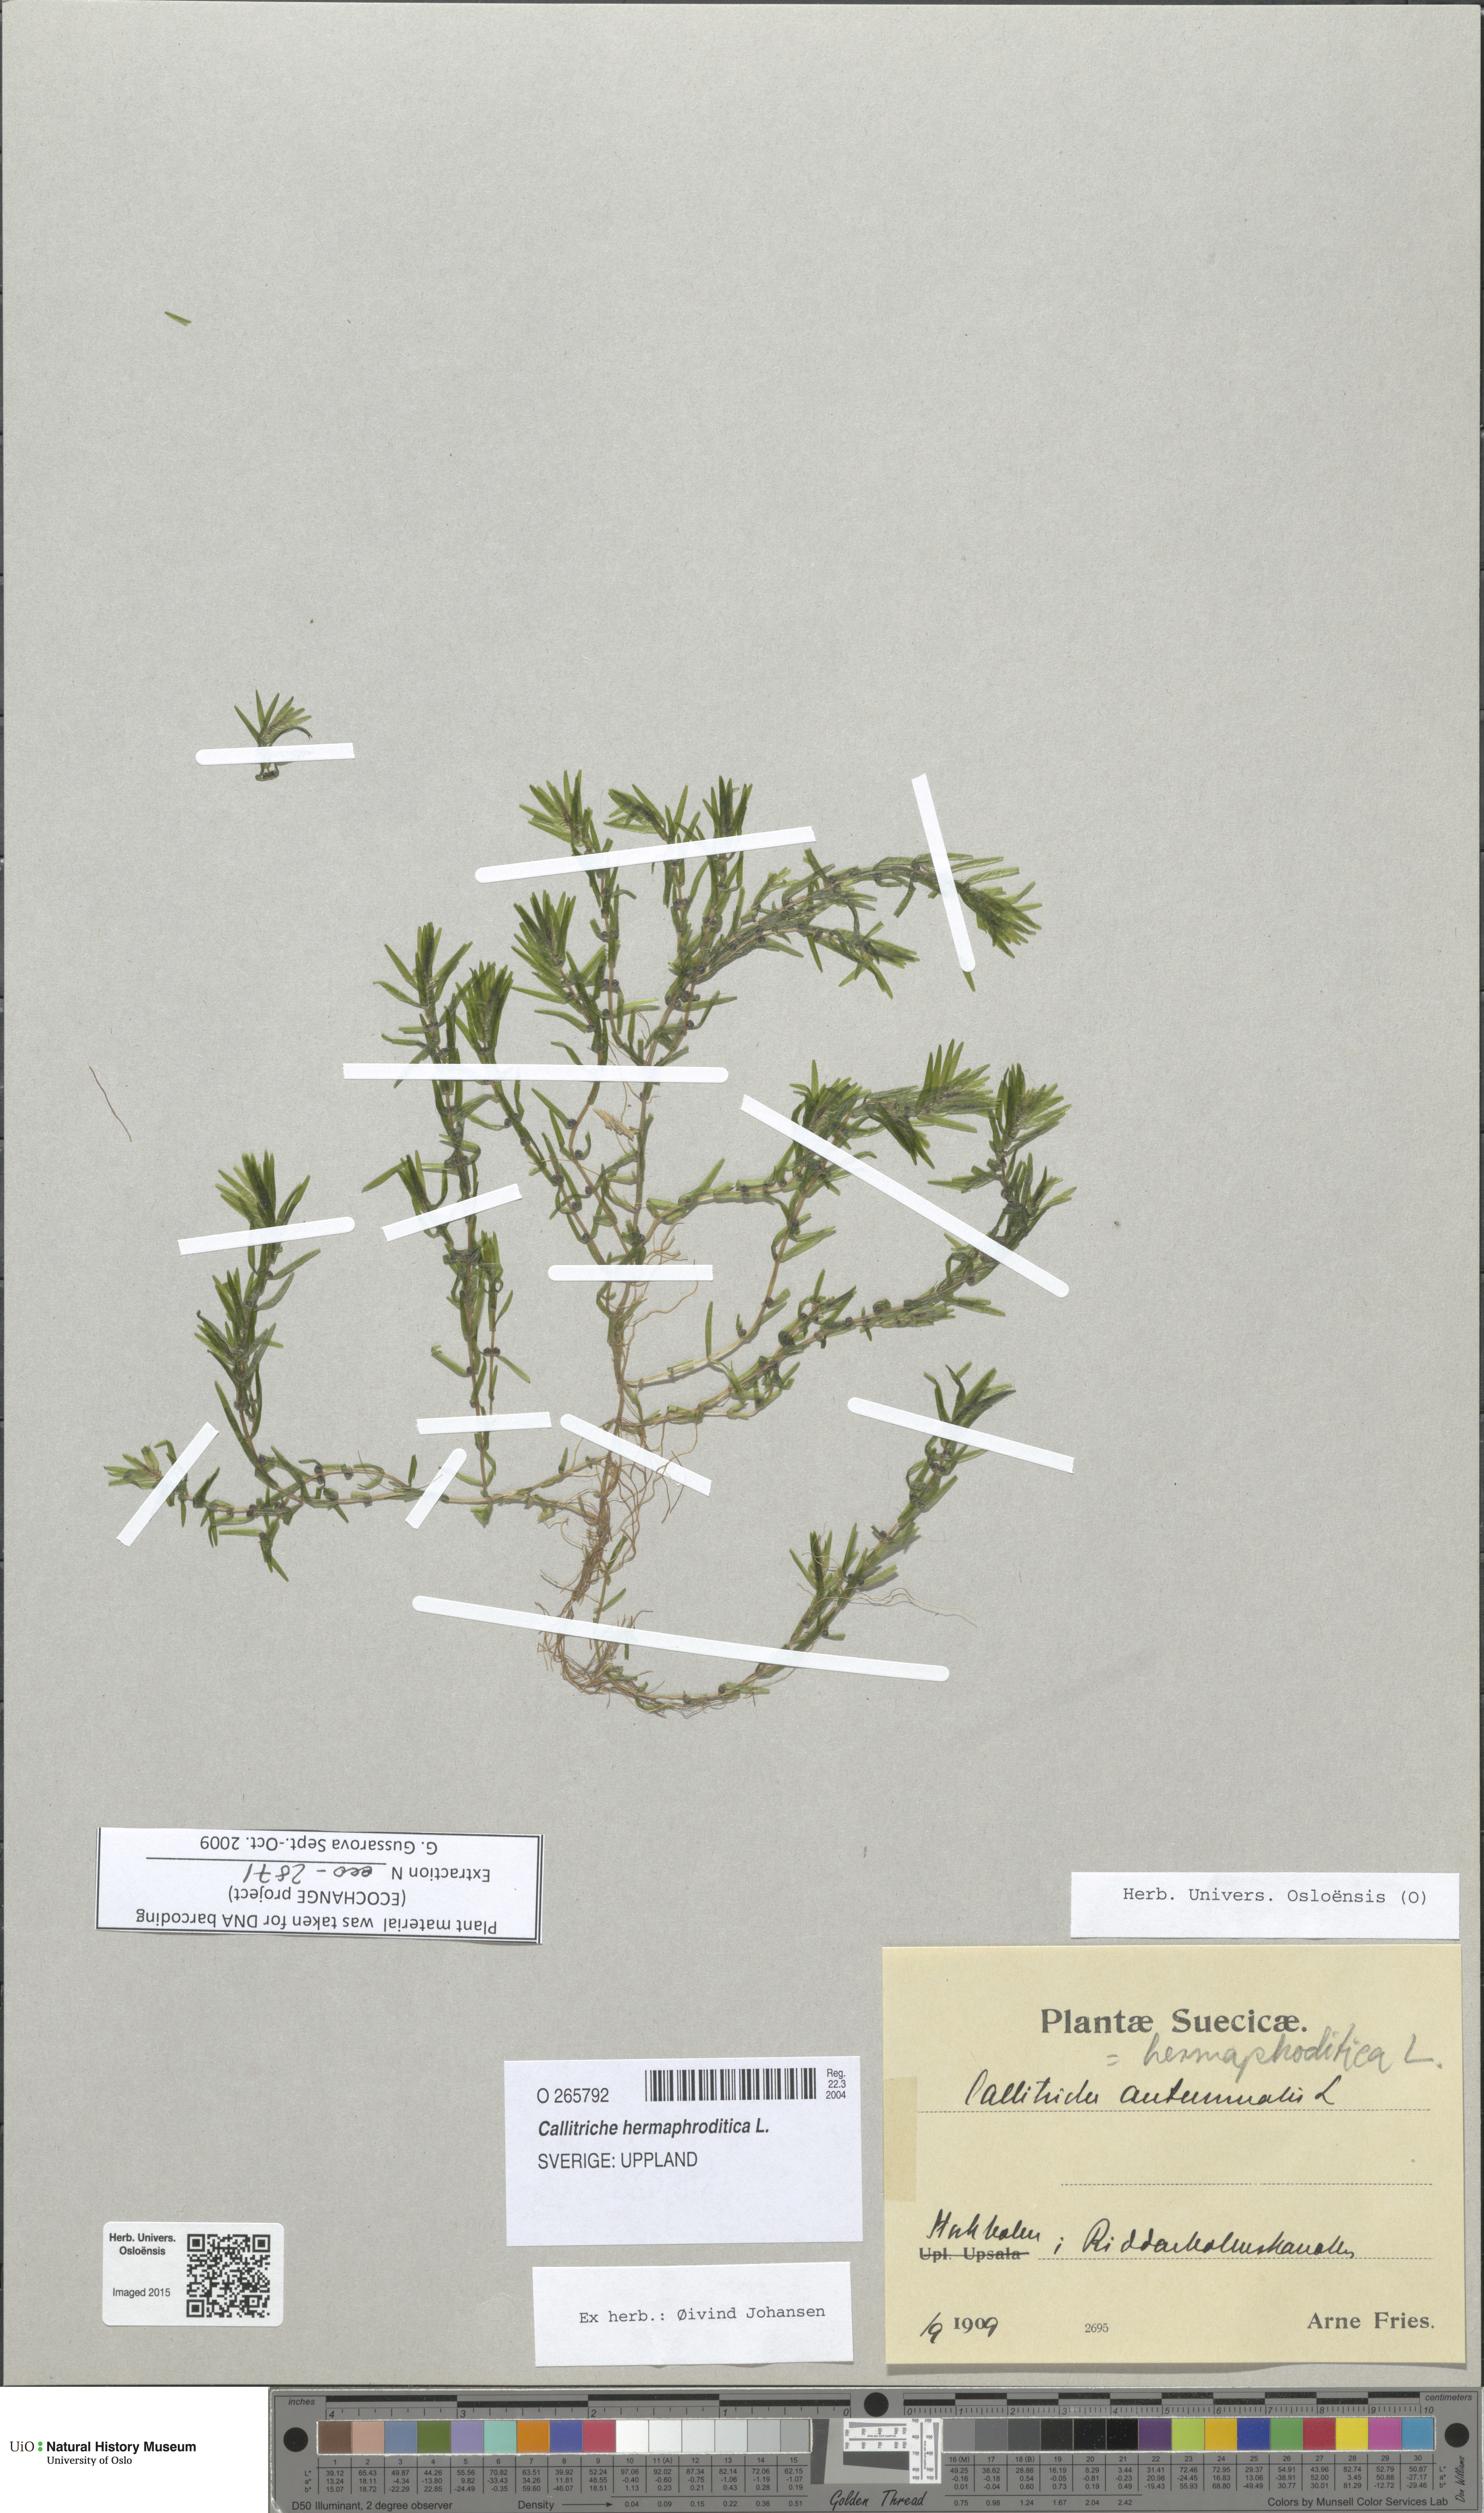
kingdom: Plantae
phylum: Tracheophyta
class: Magnoliopsida
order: Lamiales
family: Plantaginaceae
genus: Callitriche
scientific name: Callitriche hermaphroditica
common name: Autumnal water-starwort
